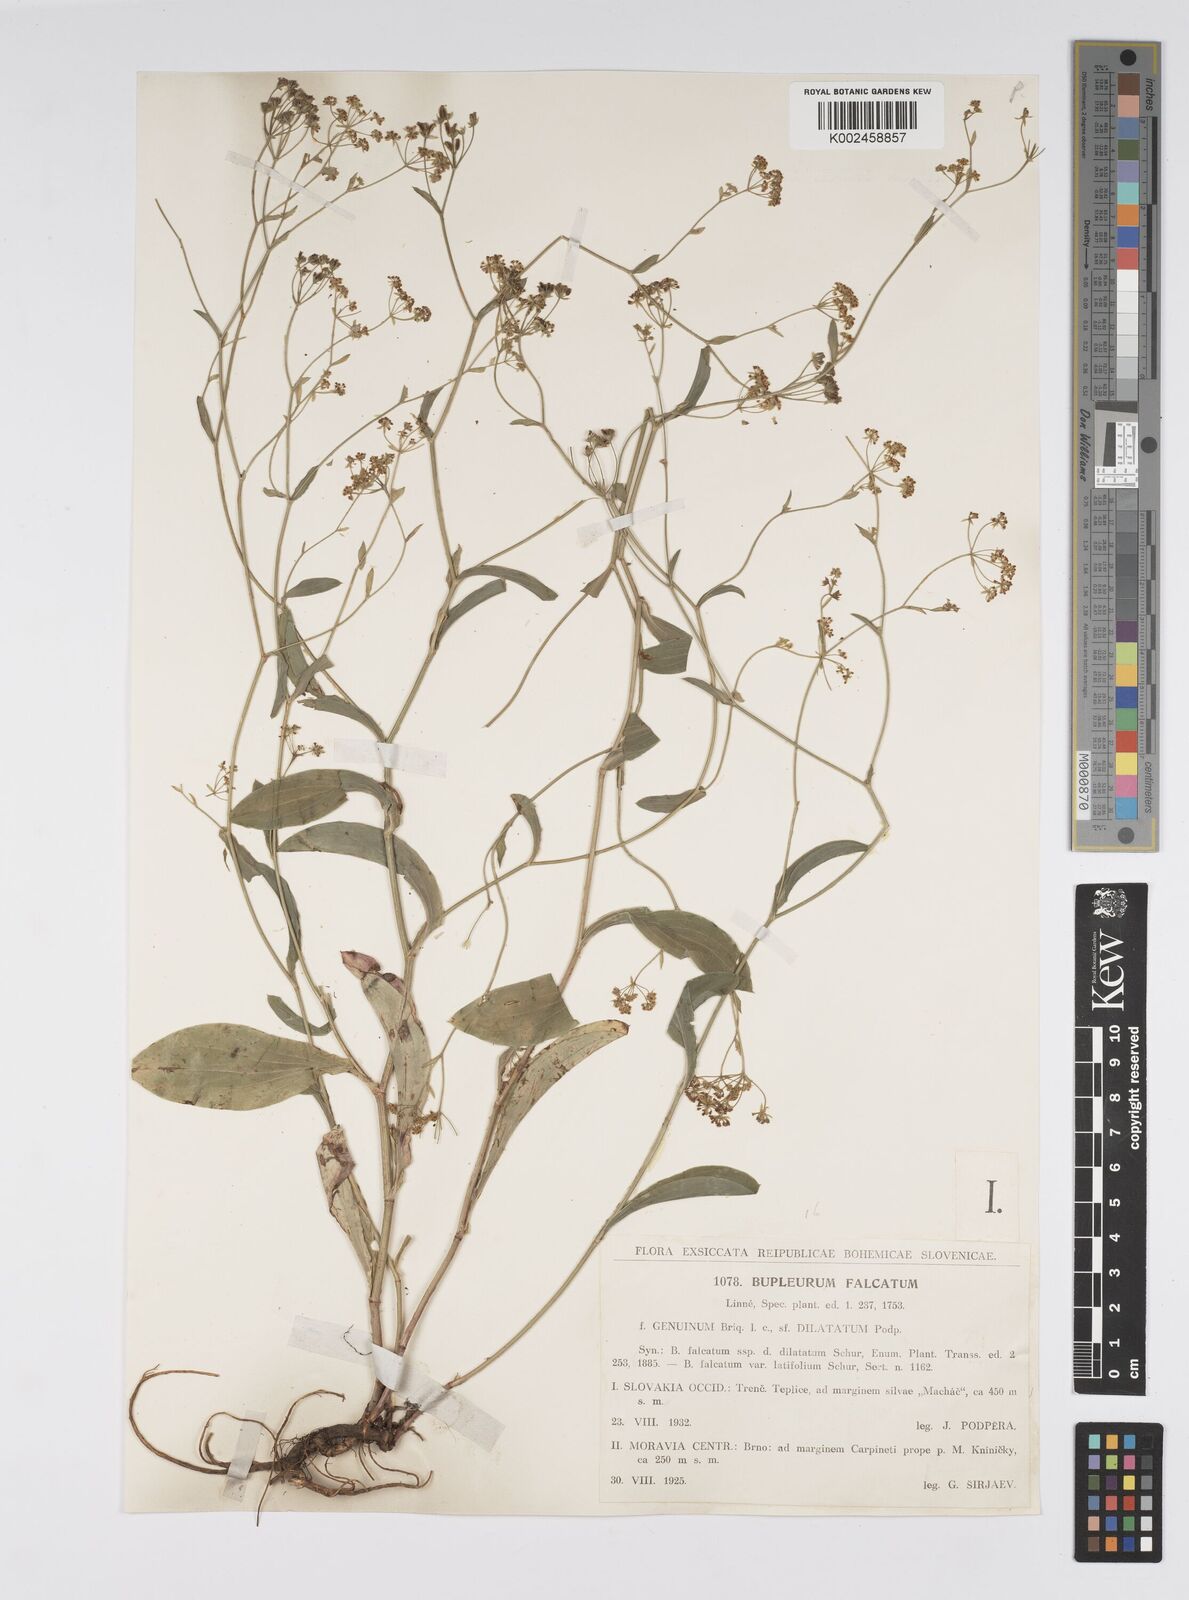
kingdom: Plantae
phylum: Tracheophyta
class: Magnoliopsida
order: Apiales
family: Apiaceae
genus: Bupleurum
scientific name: Bupleurum falcatum
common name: Sickle-leaved hare's-ear
